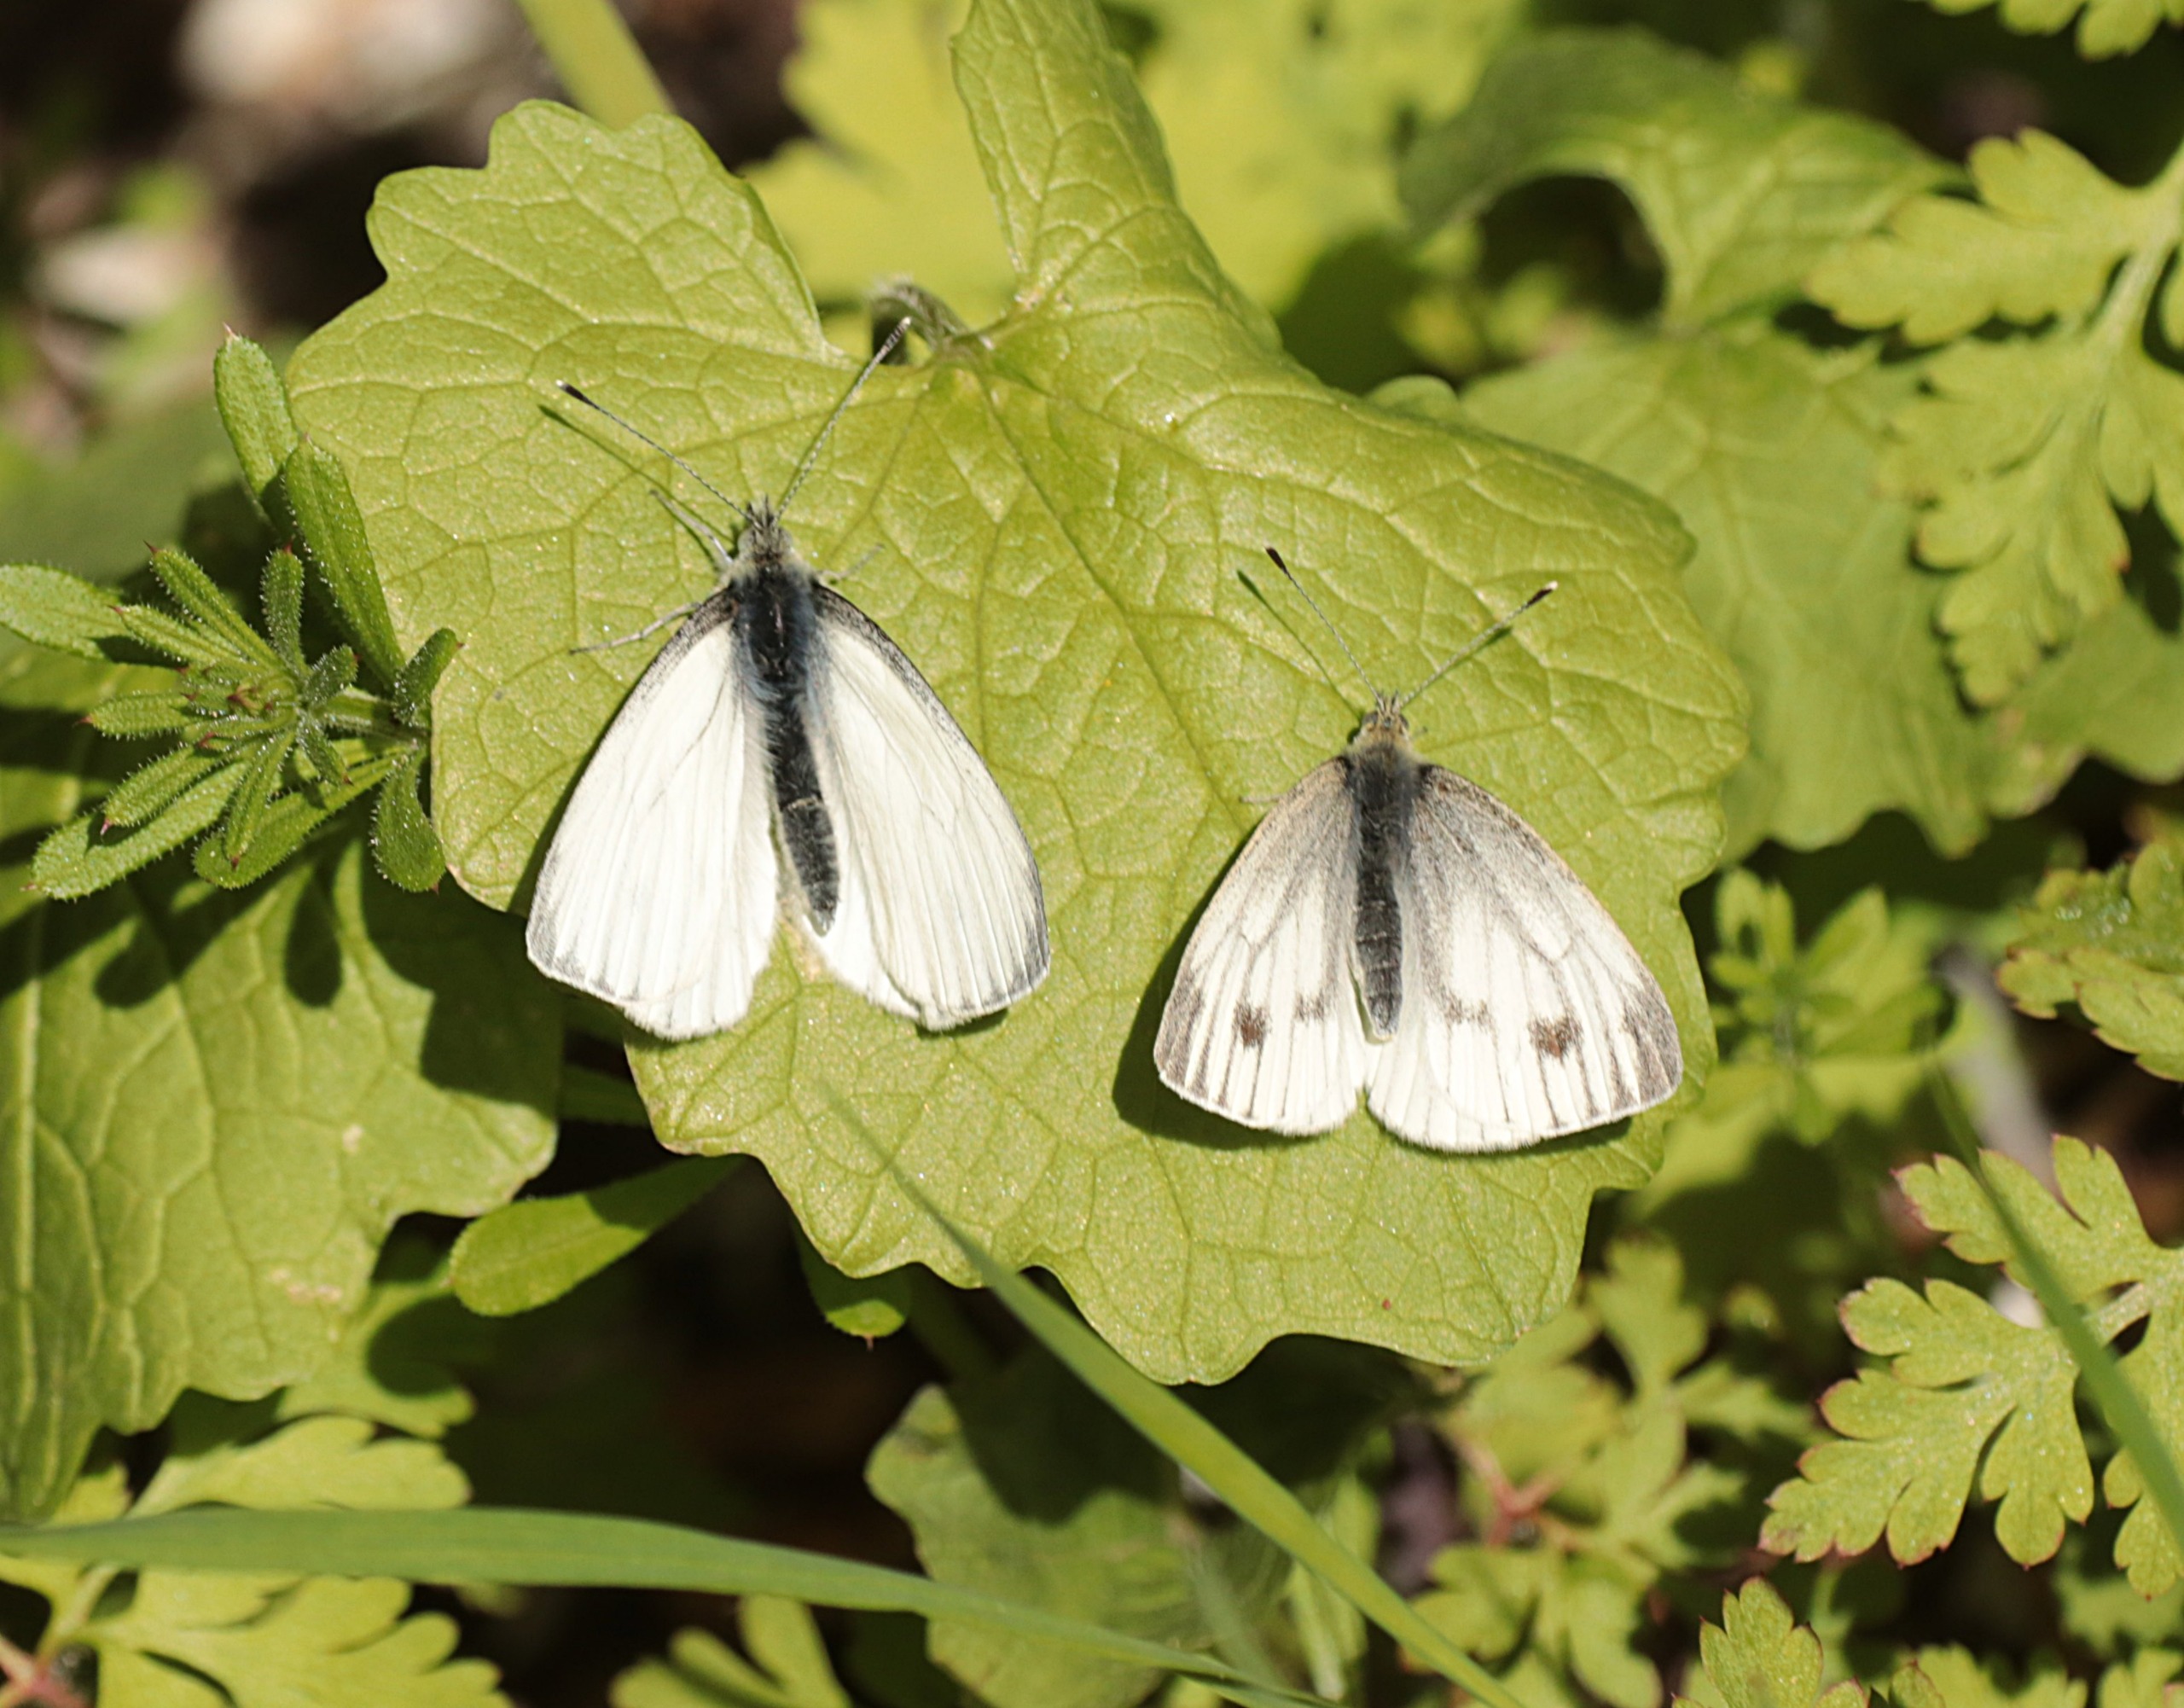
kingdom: Animalia
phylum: Arthropoda
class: Insecta
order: Lepidoptera
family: Pieridae
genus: Pieris
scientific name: Pieris napi
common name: Grønåret kålsommerfugl
